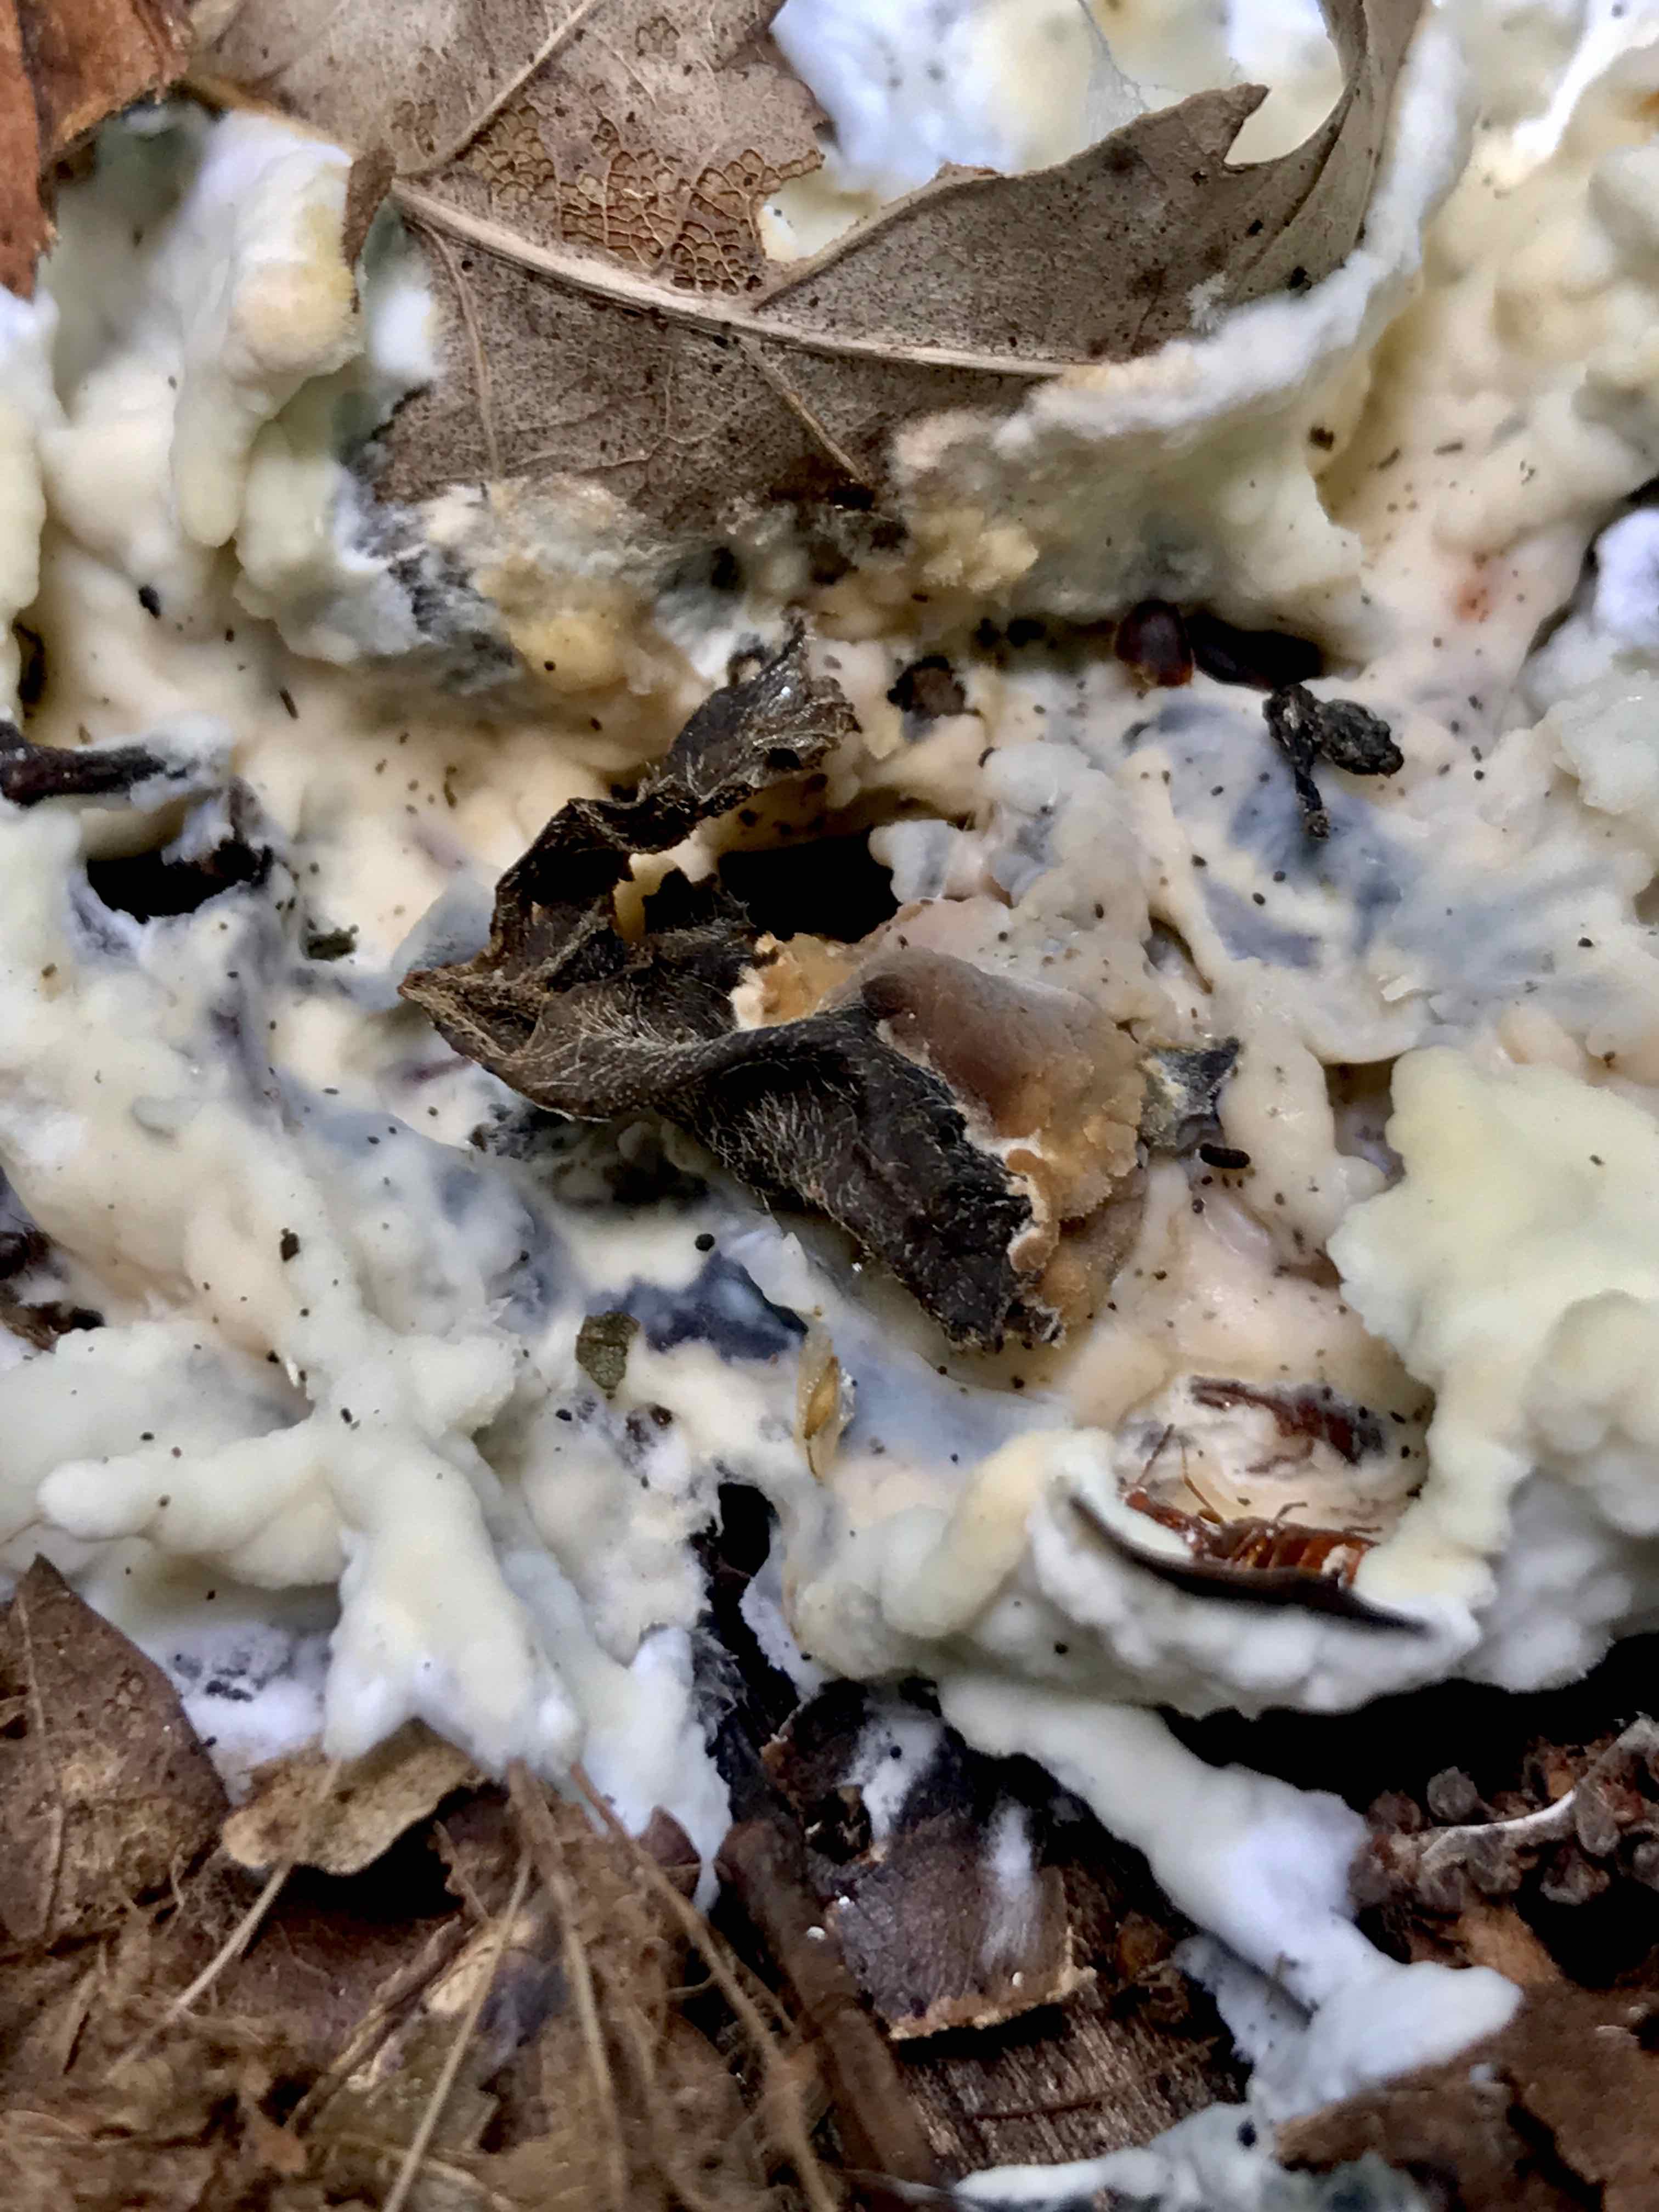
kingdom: Fungi
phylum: Basidiomycota
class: Agaricomycetes
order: Corticiales
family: Corticiaceae
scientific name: Corticiaceae
